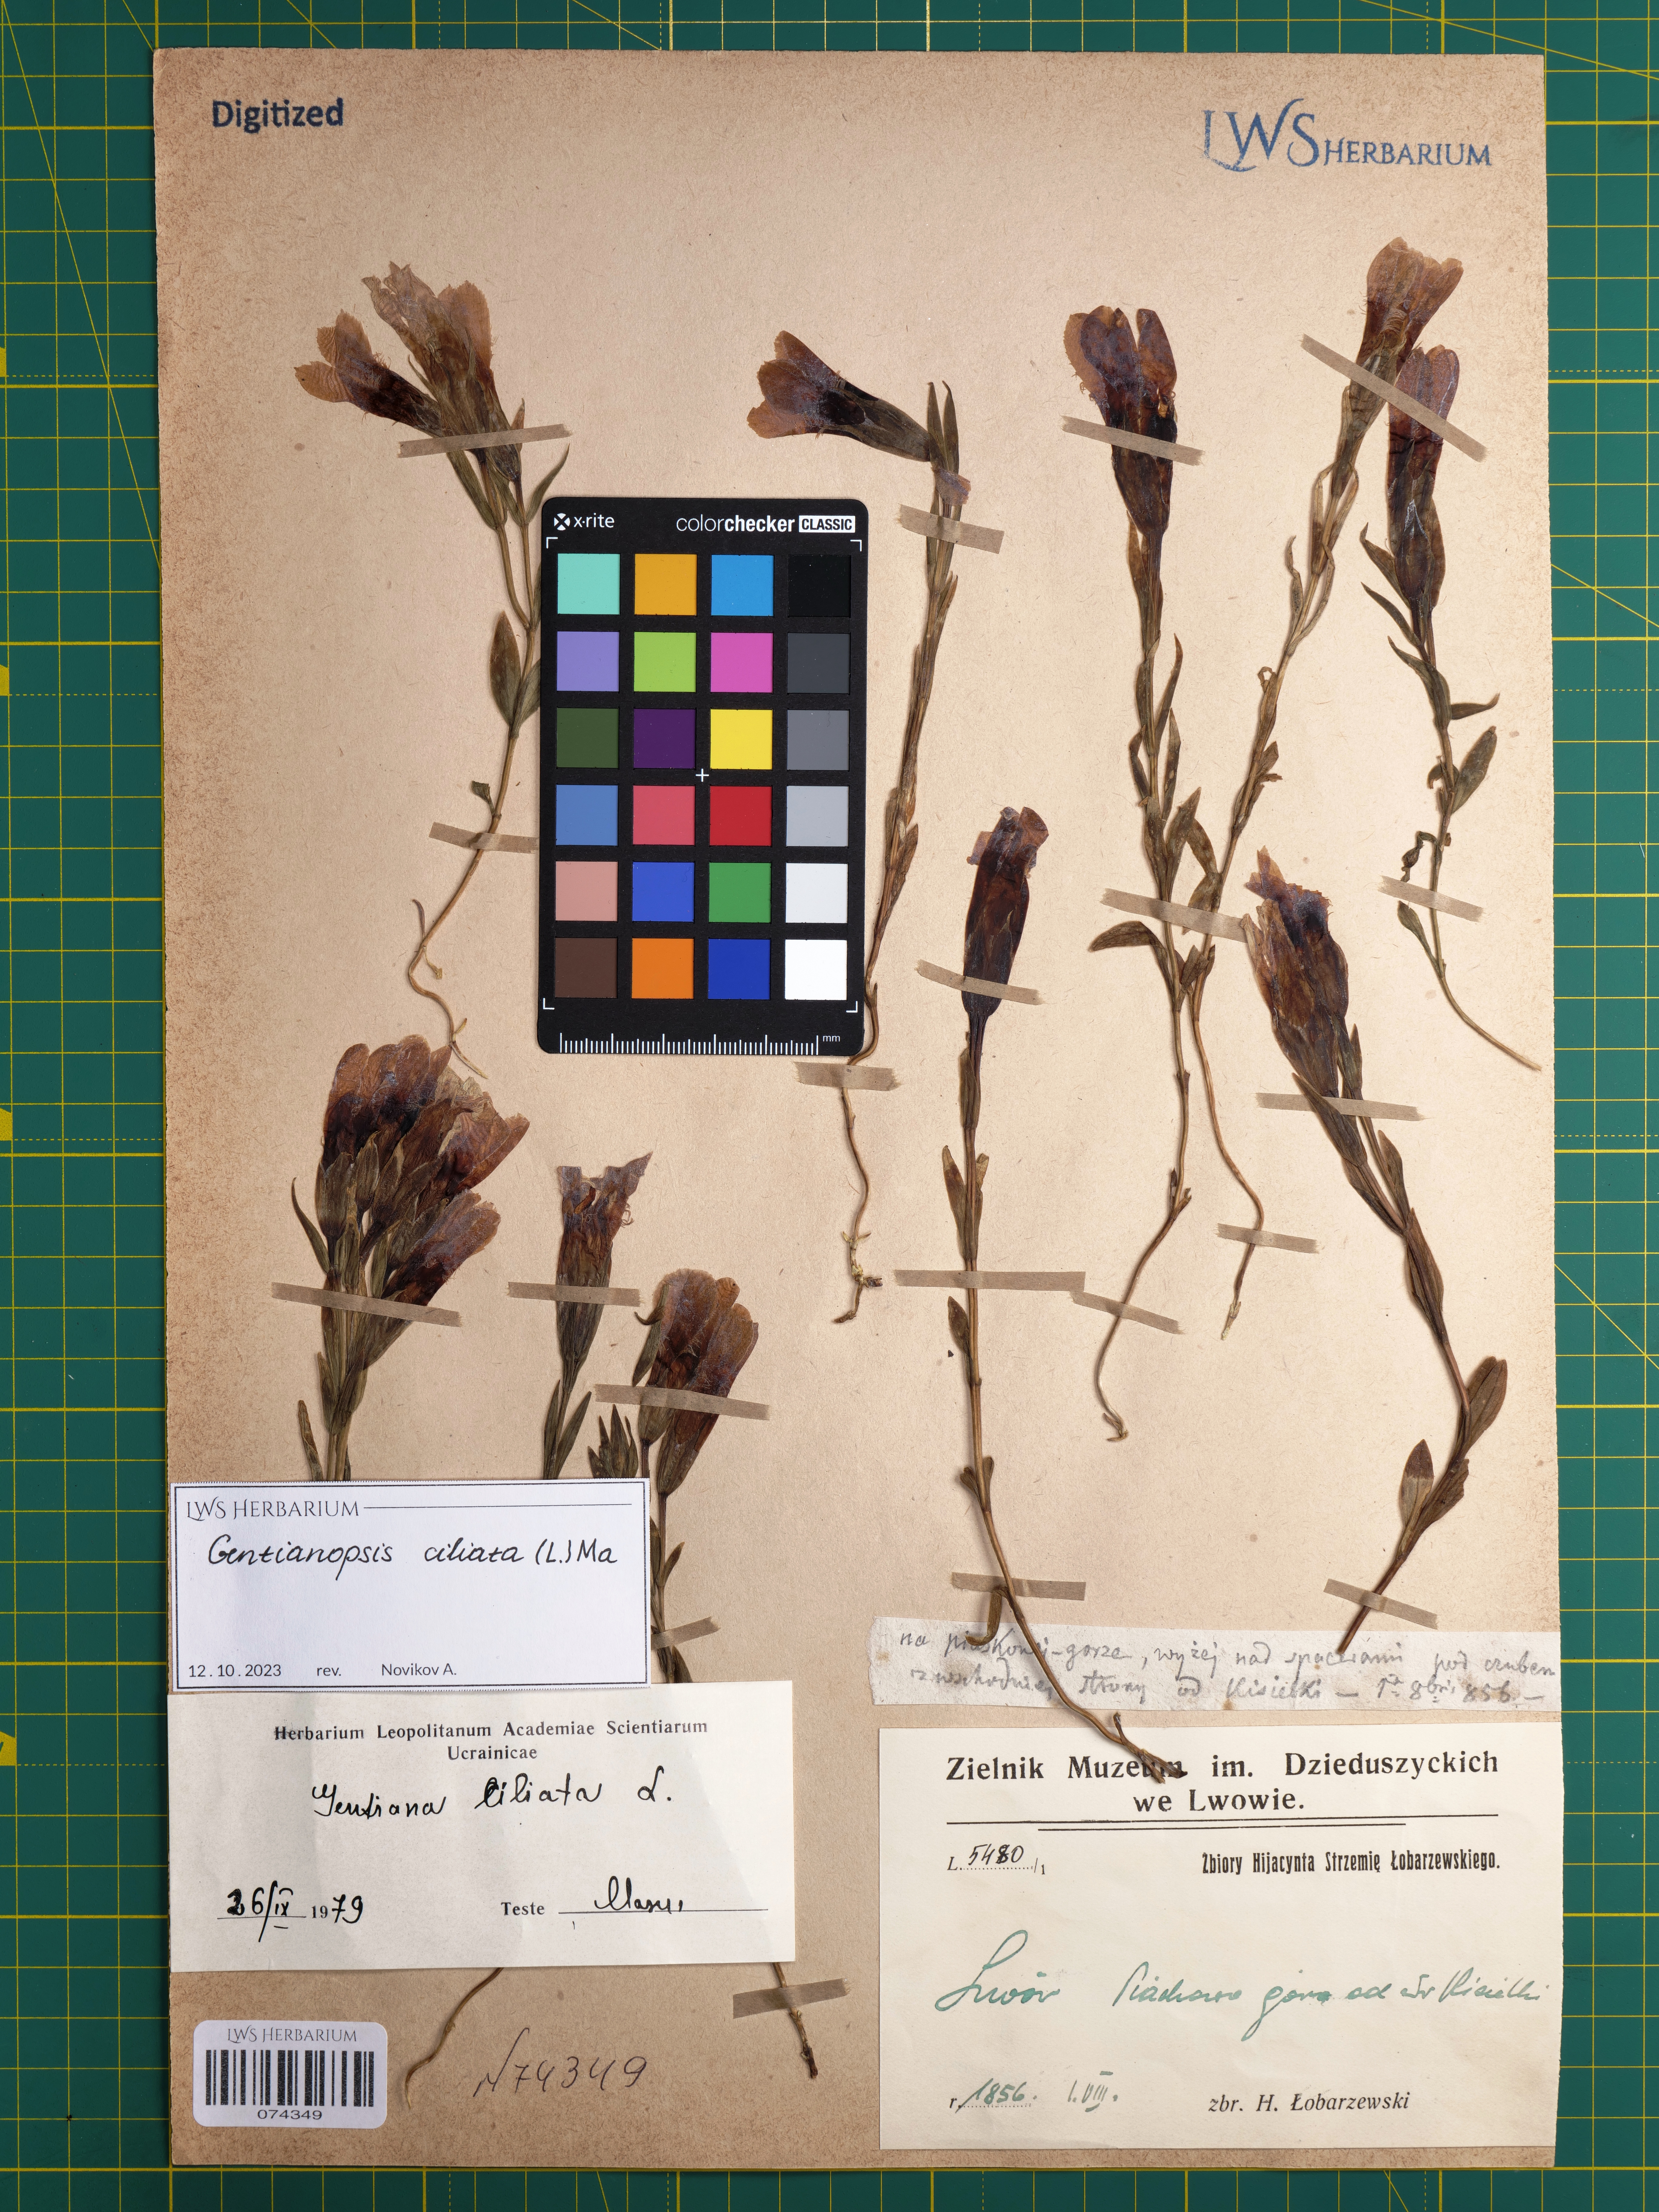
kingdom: Plantae
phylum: Tracheophyta
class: Magnoliopsida
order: Gentianales
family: Gentianaceae
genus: Gentianopsis
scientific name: Gentianopsis ciliata
